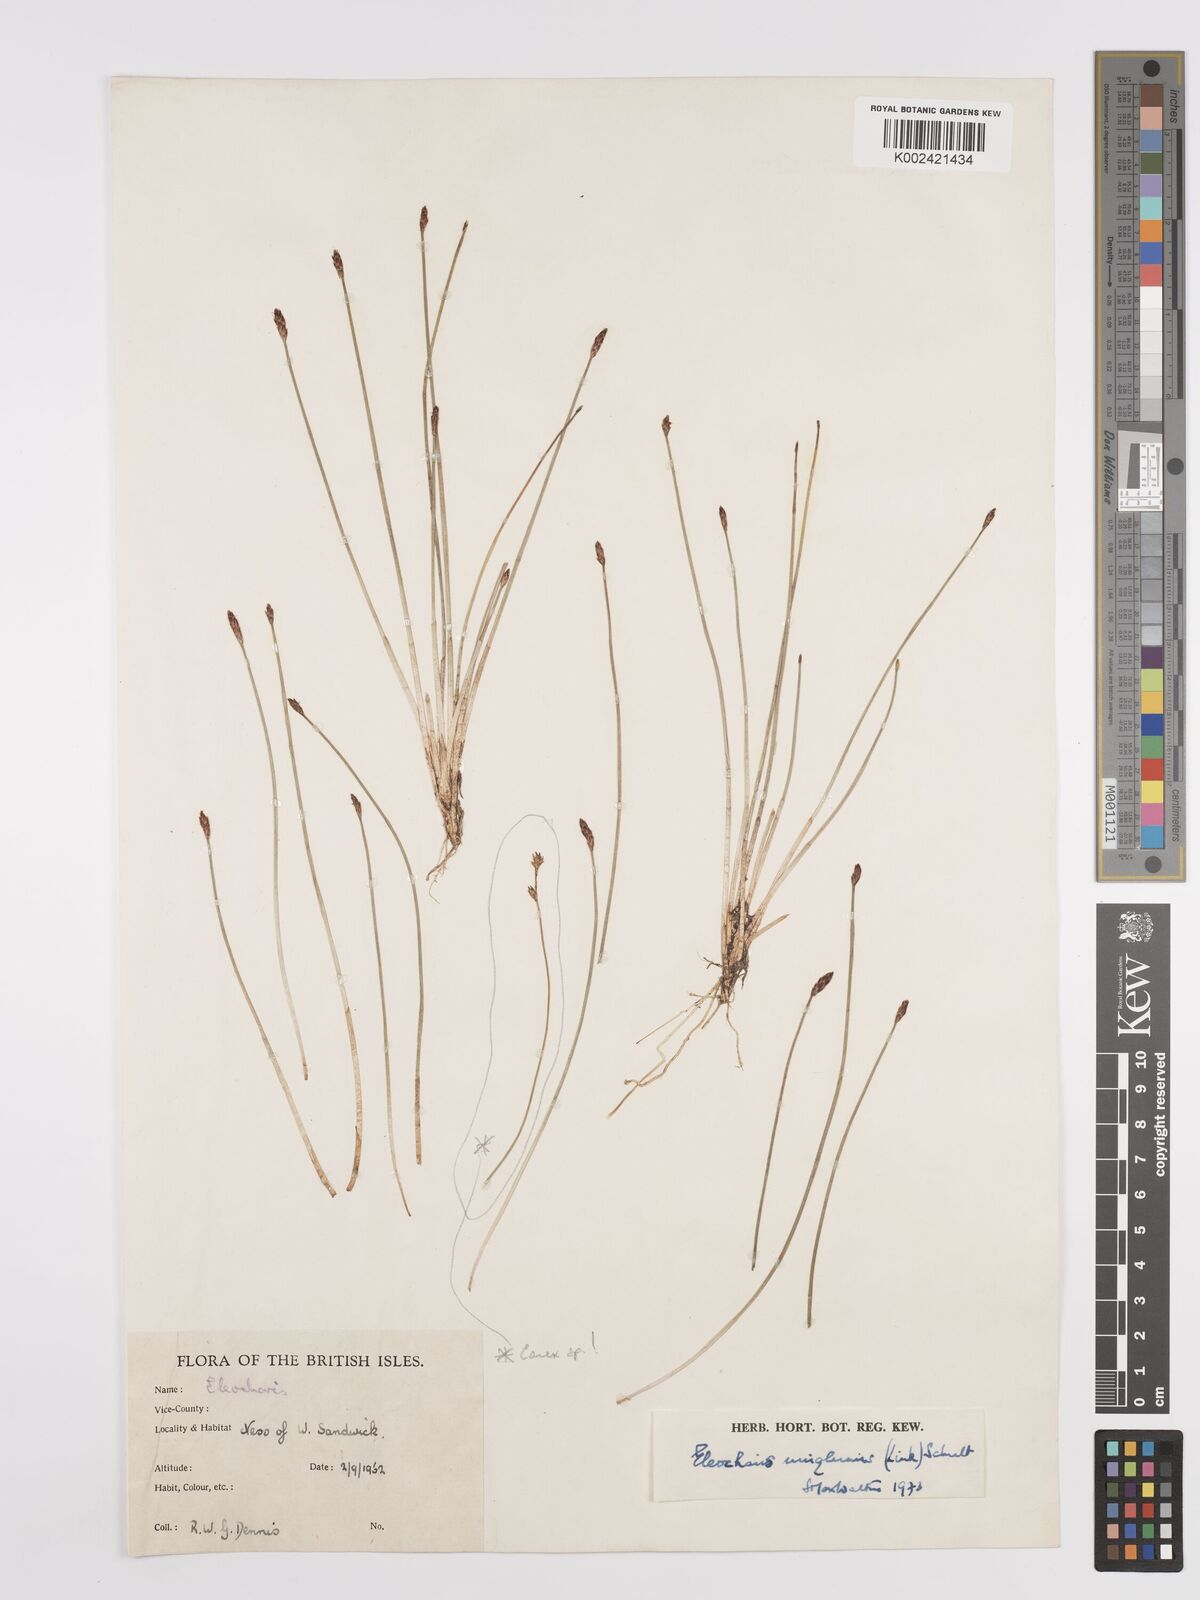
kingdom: Plantae
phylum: Tracheophyta
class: Liliopsida
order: Poales
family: Cyperaceae
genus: Eleocharis
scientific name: Eleocharis uniglumis
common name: Slender spike-rush
